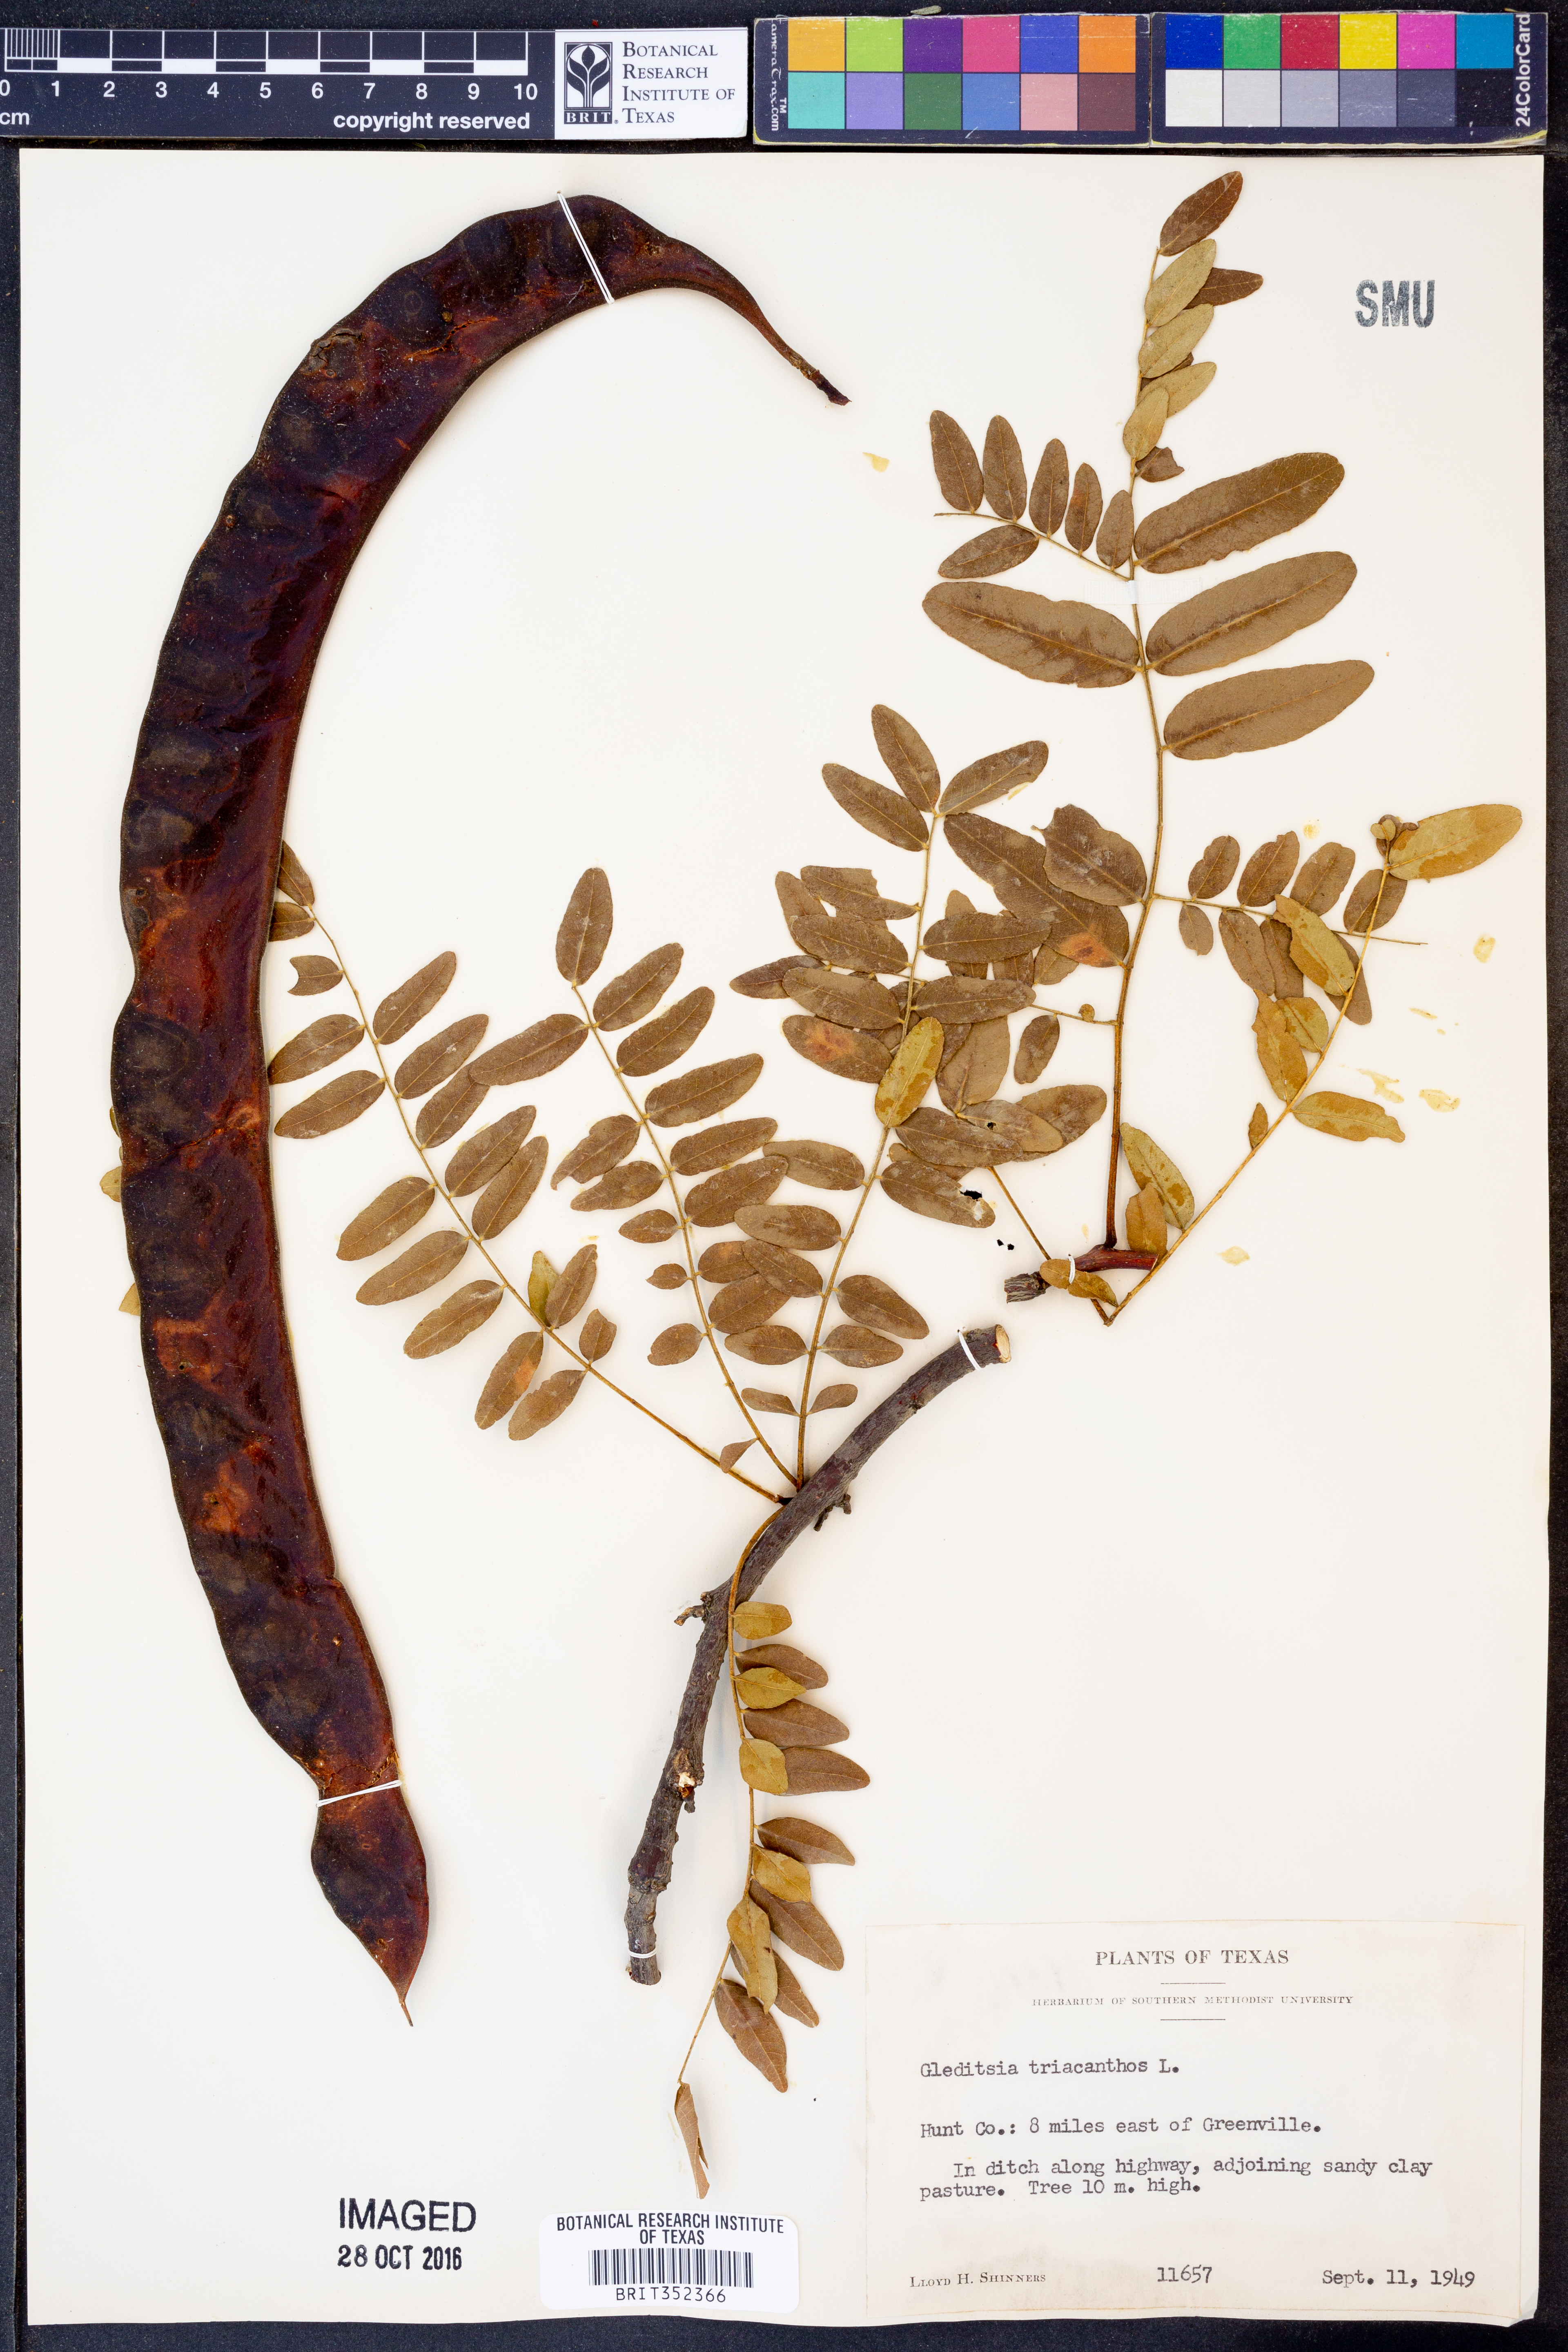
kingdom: Plantae
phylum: Tracheophyta
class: Magnoliopsida
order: Fabales
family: Fabaceae
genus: Gleditsia
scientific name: Gleditsia triacanthos
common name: Common honeylocust
